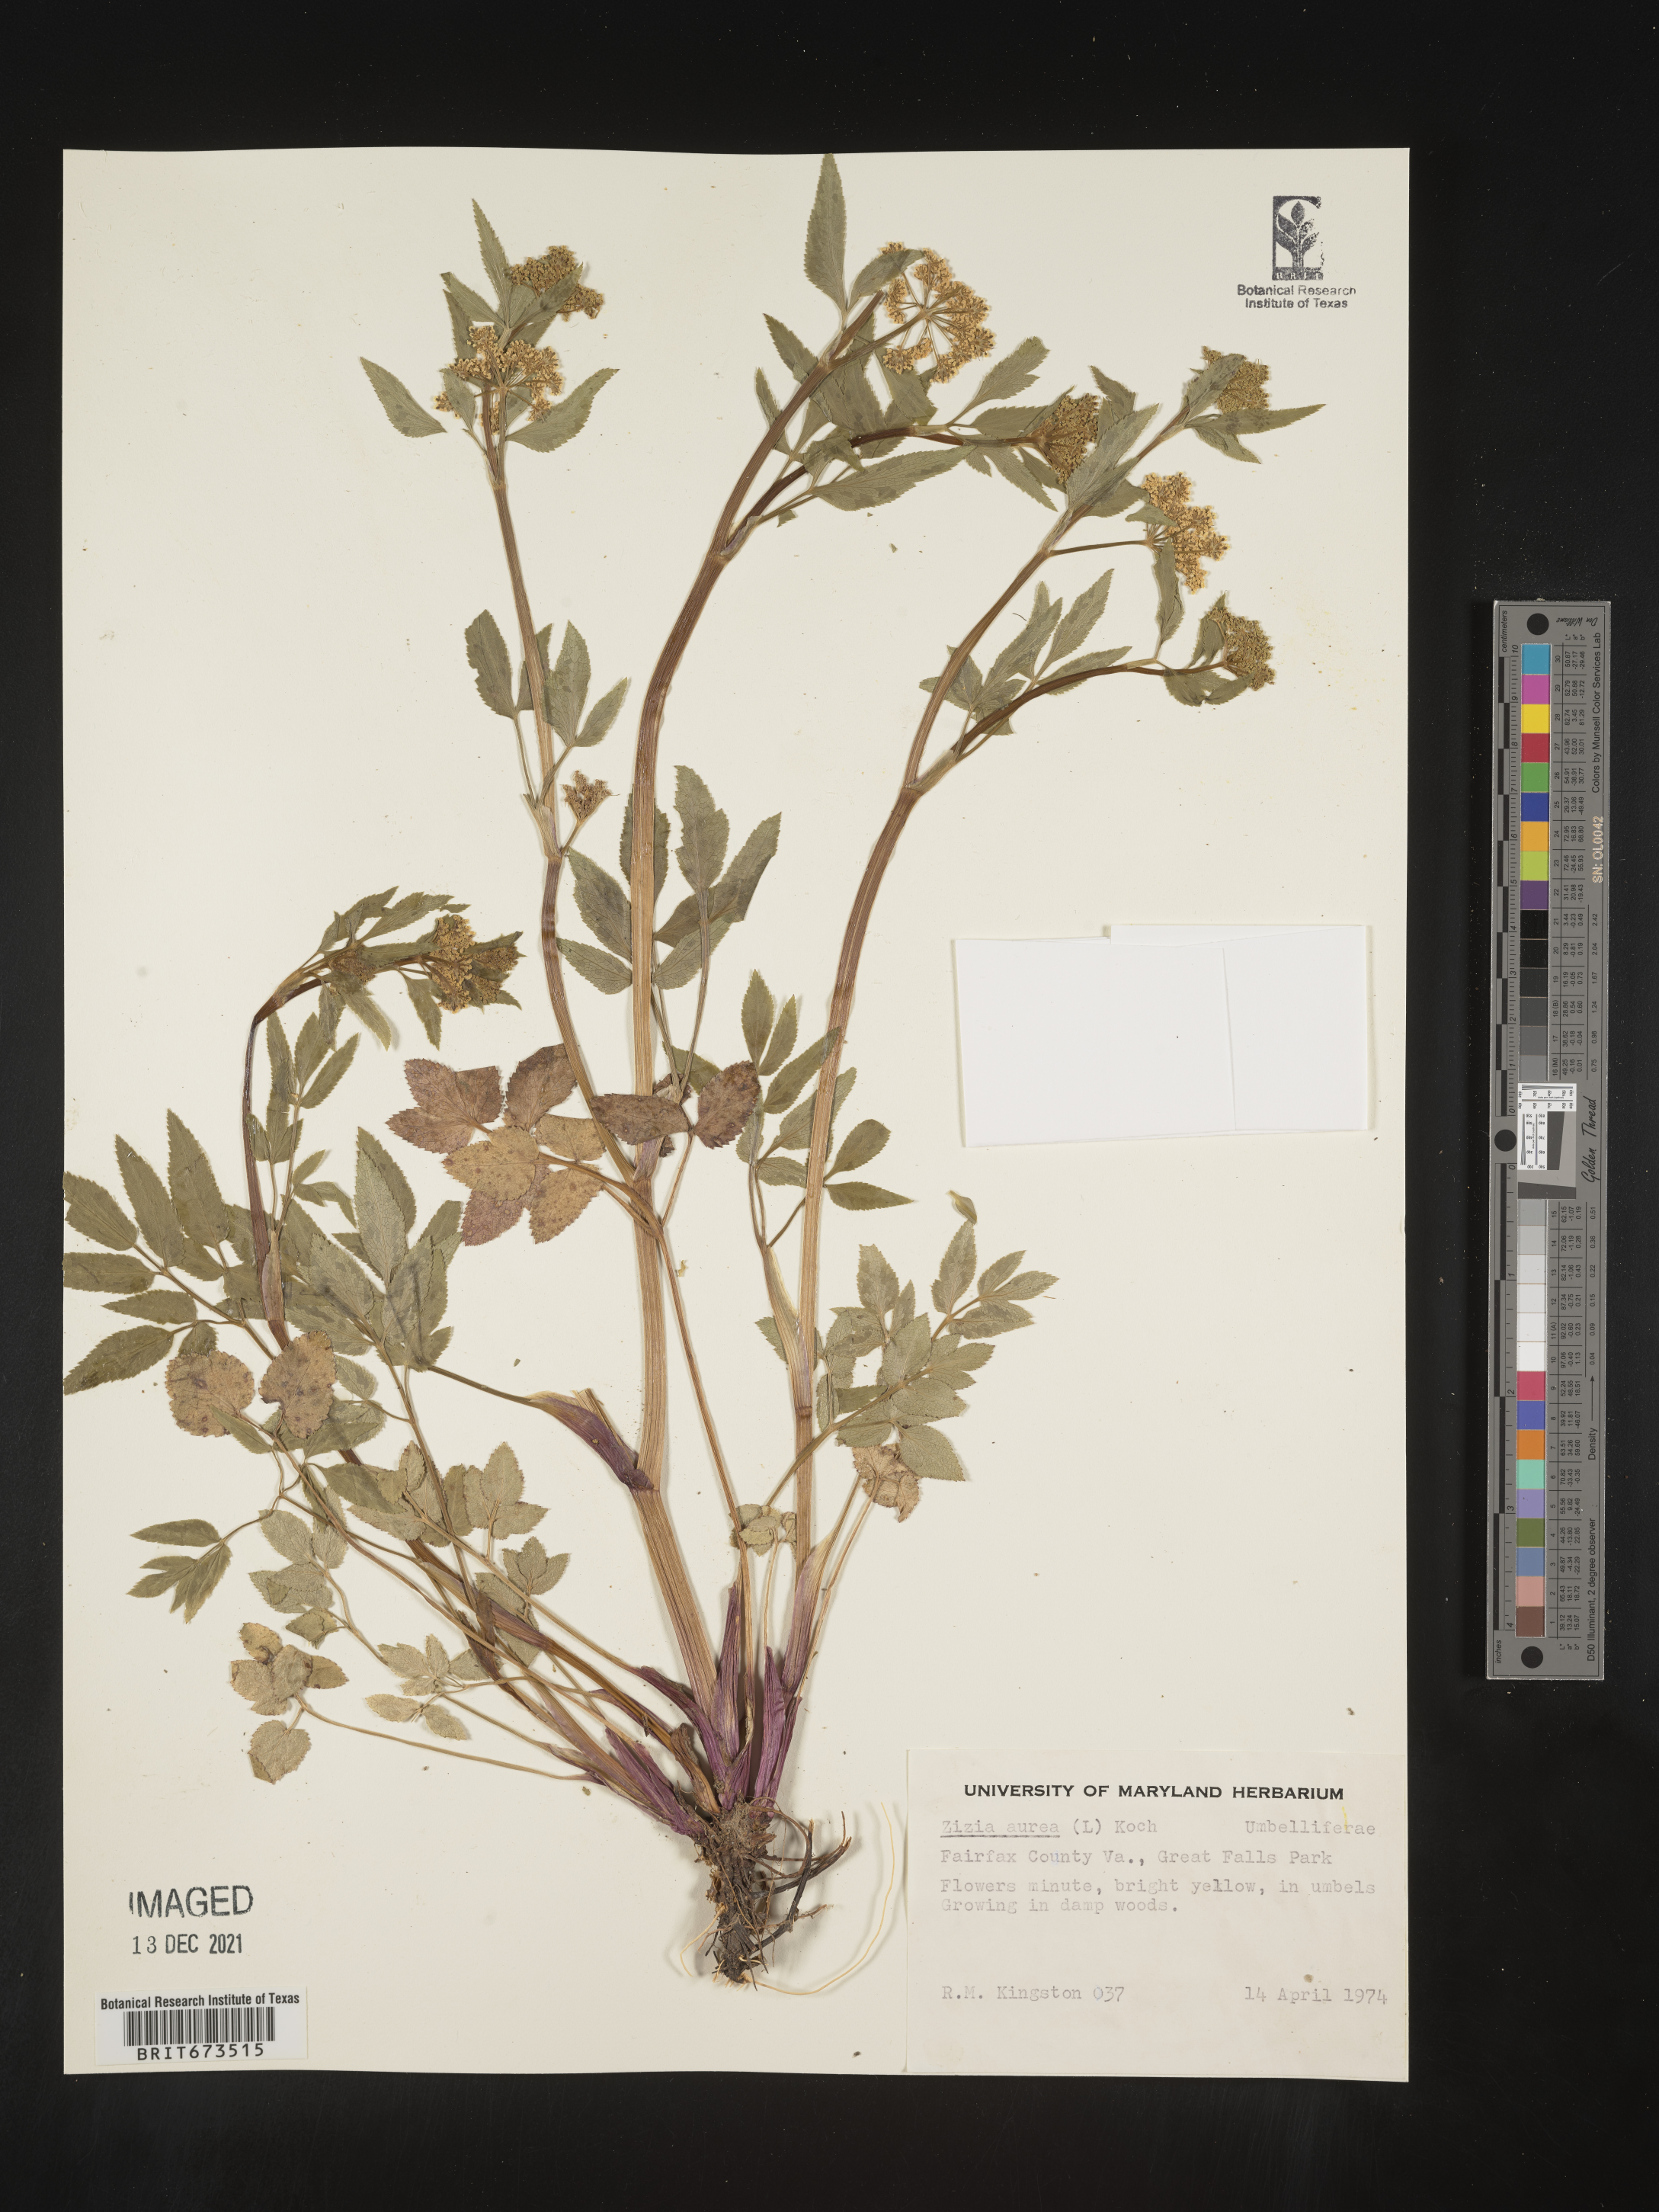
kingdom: Plantae
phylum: Tracheophyta
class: Magnoliopsida
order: Apiales
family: Apiaceae
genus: Zizia
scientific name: Zizia aurea
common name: Golden alexanders
